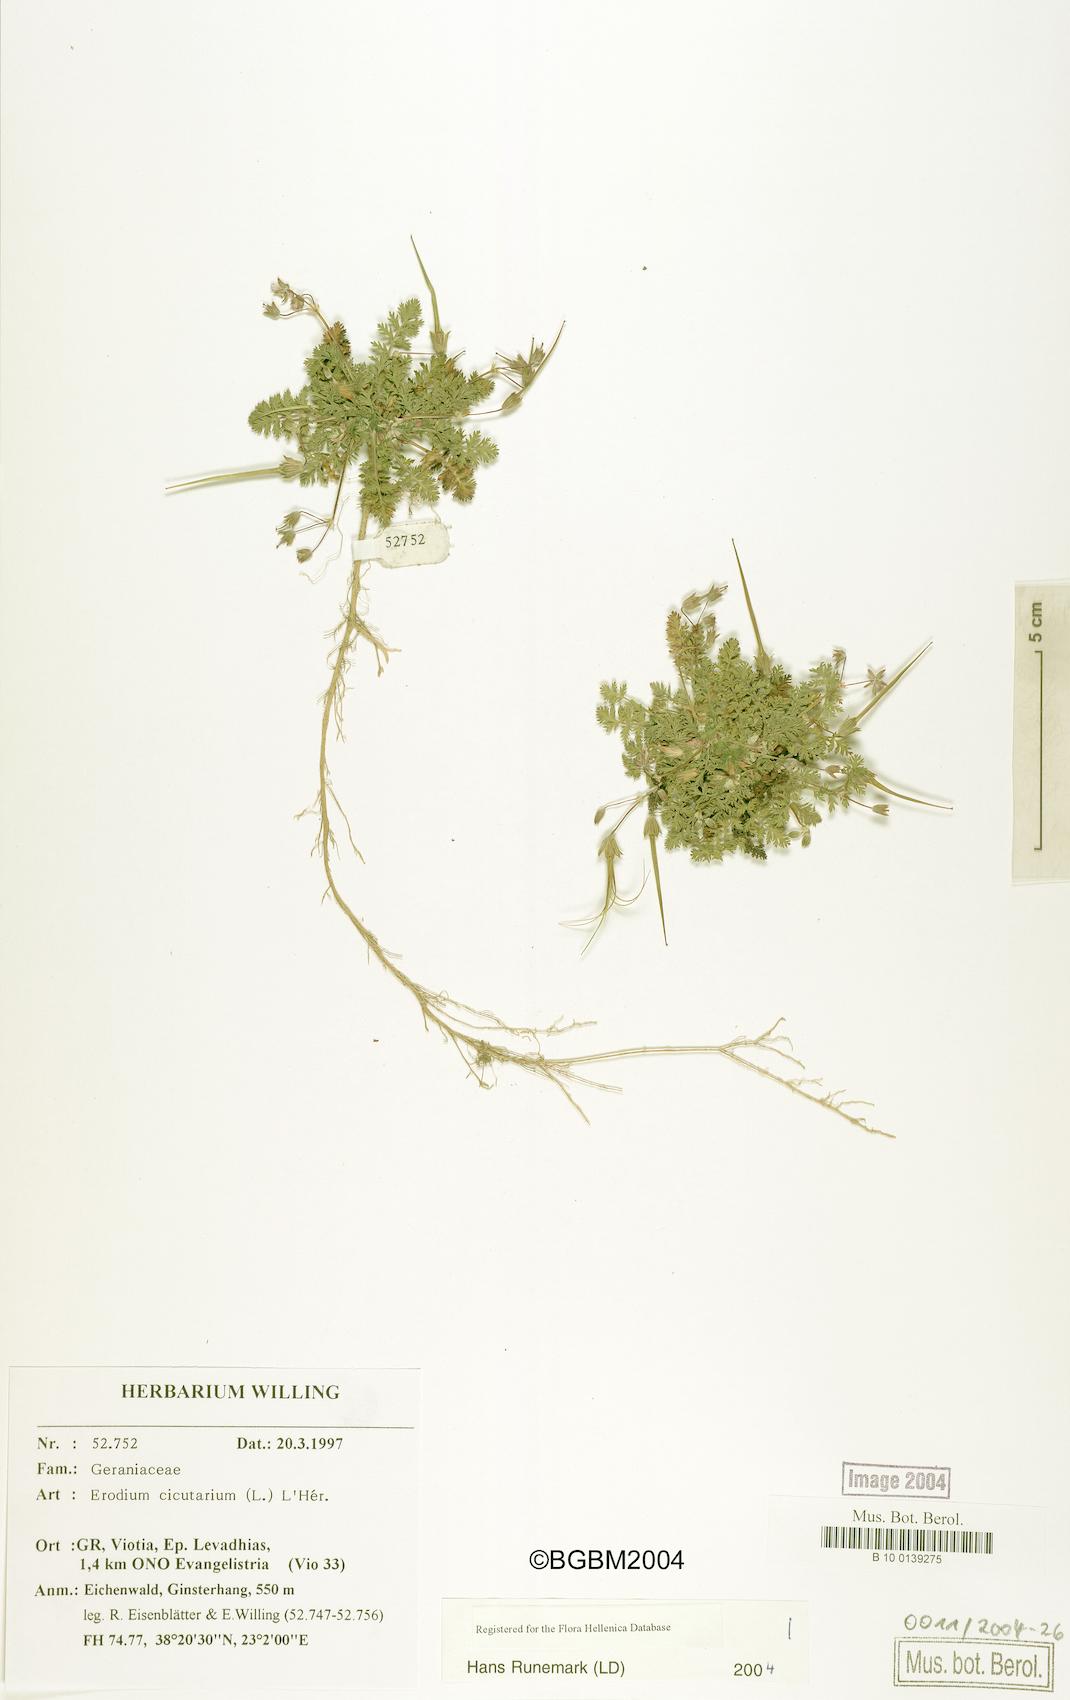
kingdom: Plantae
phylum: Tracheophyta
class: Magnoliopsida
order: Geraniales
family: Geraniaceae
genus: Erodium
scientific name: Erodium cicutarium
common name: Common stork's-bill
